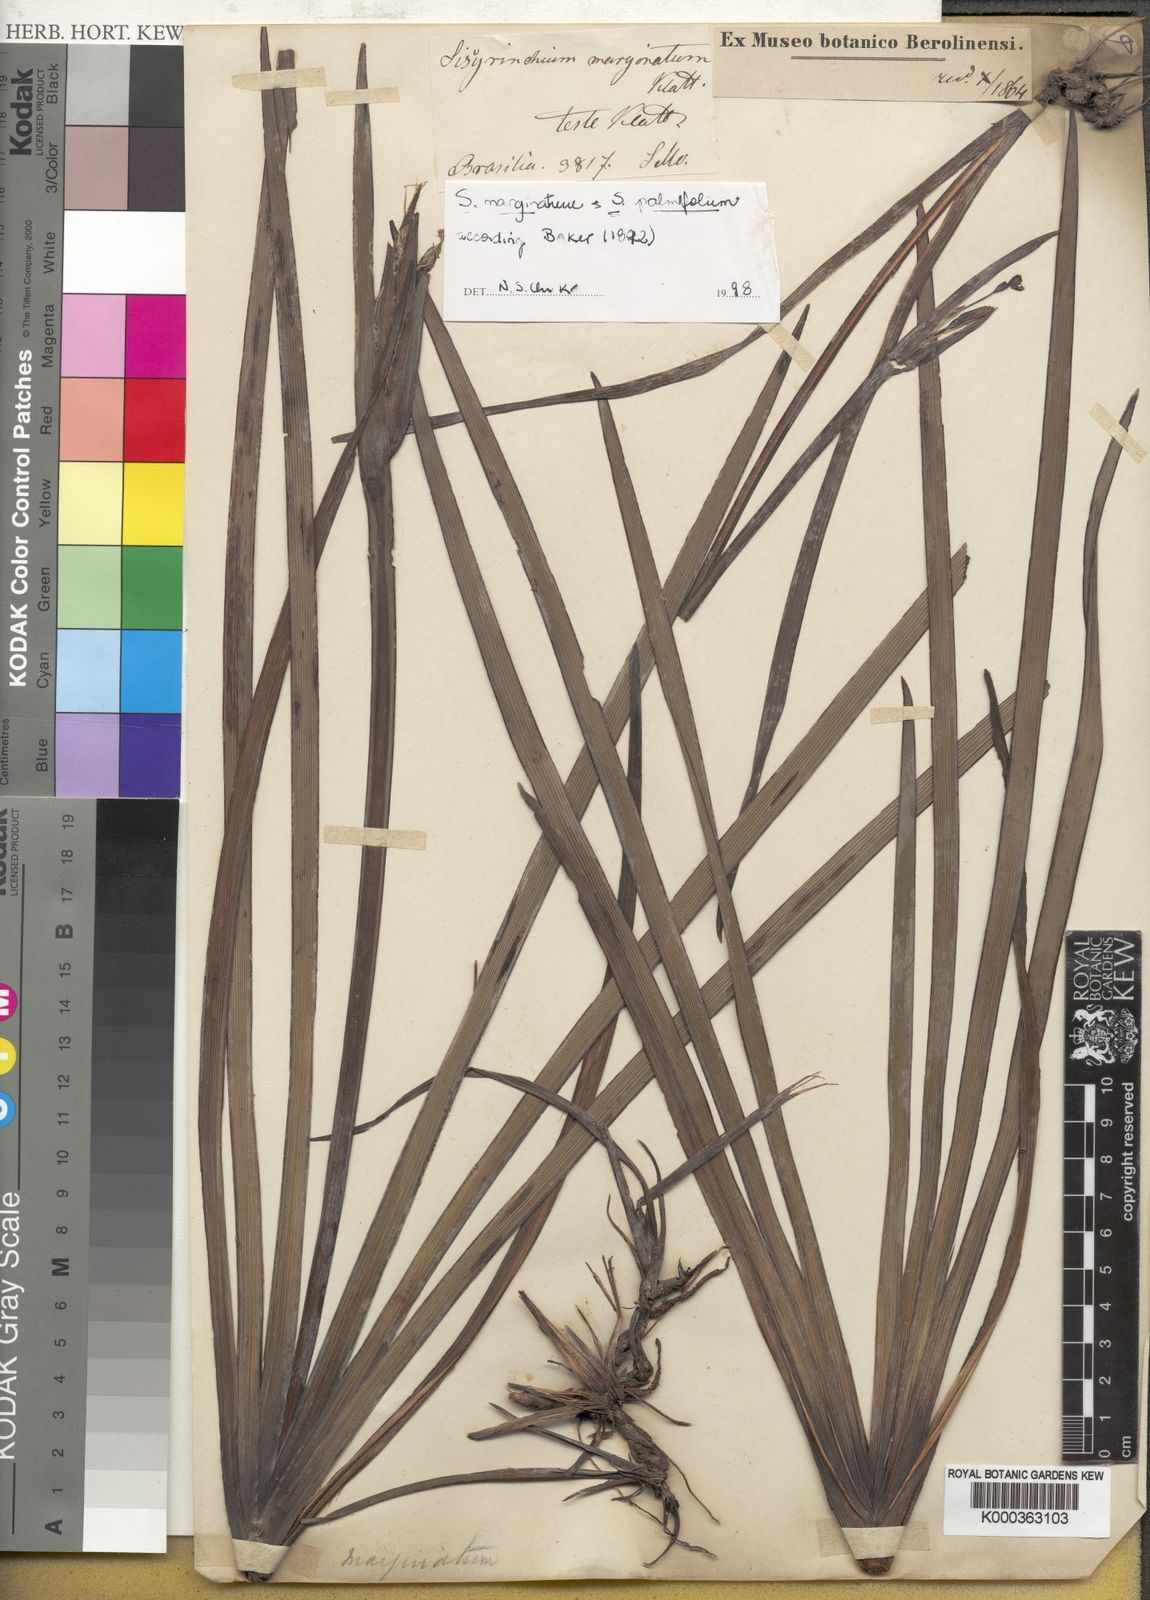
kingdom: Plantae
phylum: Tracheophyta
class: Liliopsida
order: Asparagales
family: Iridaceae
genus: Sisyrinchium
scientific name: Sisyrinchium palmifolium
